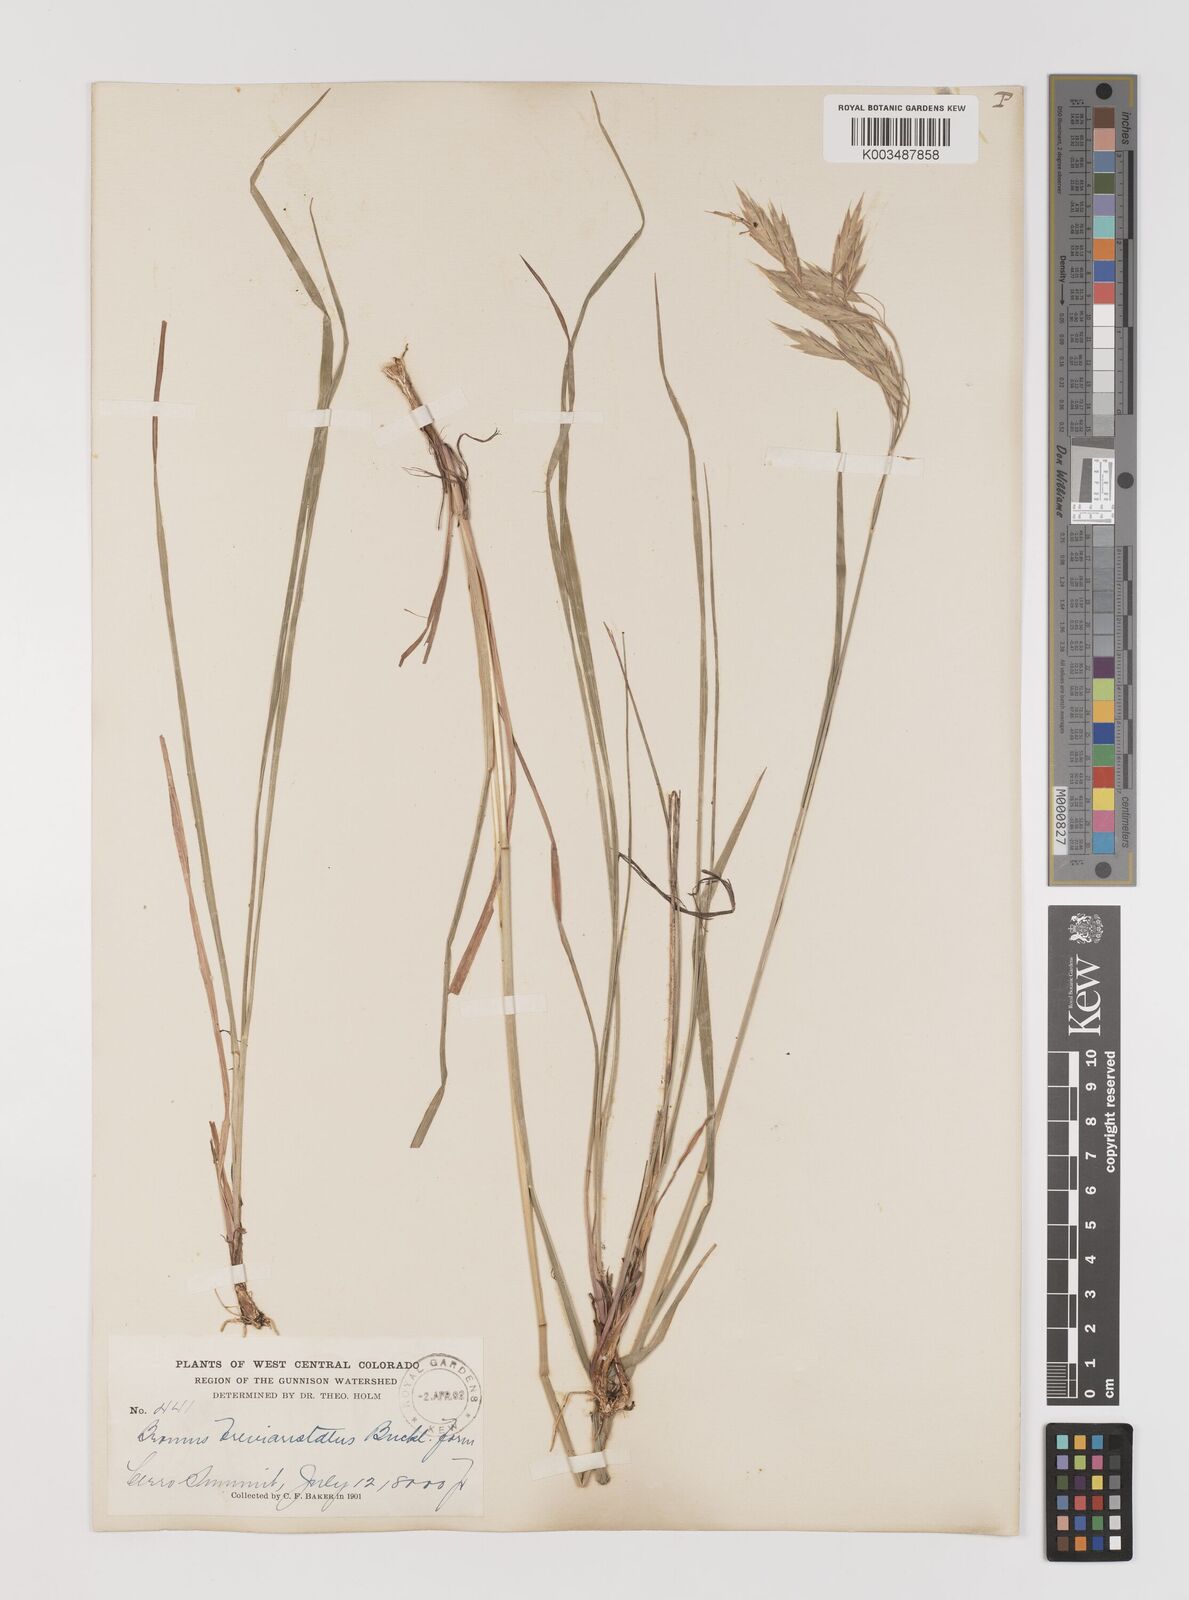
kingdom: Plantae
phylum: Tracheophyta
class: Liliopsida
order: Poales
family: Poaceae
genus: Bromus
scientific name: Bromus catharticus
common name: Rescuegrass
